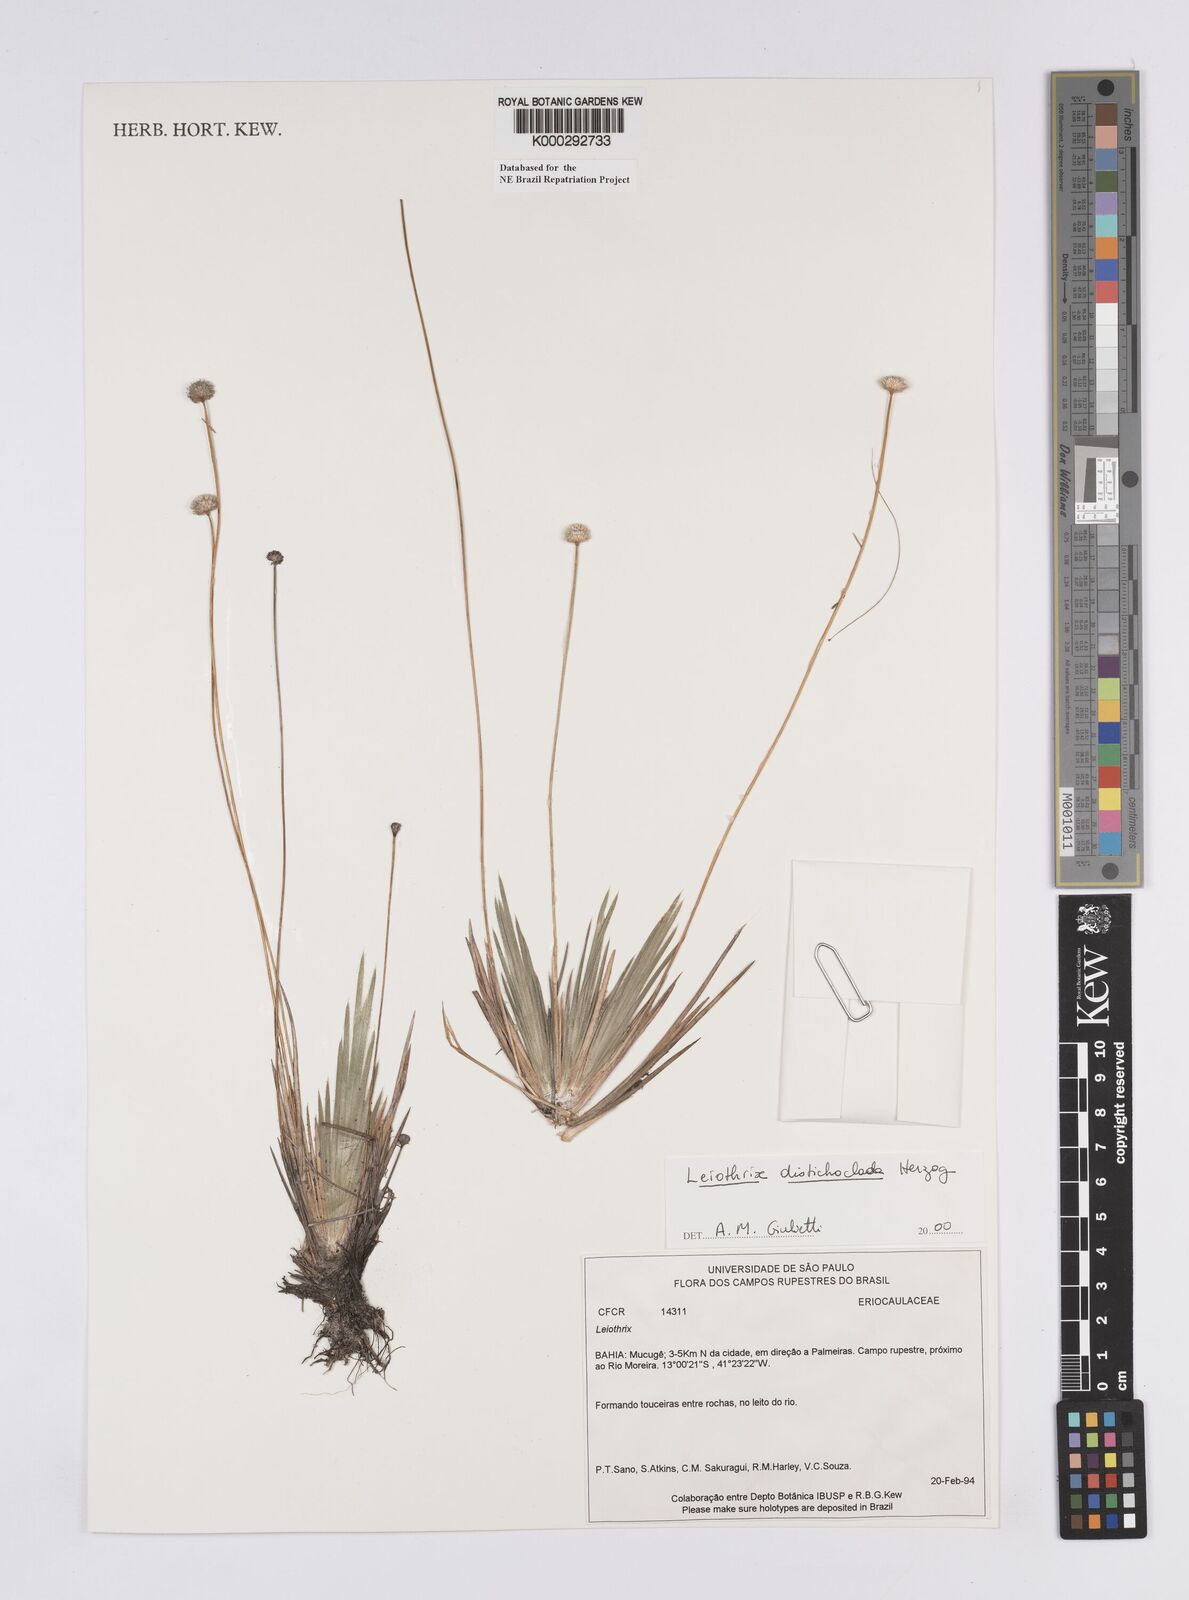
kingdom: Plantae
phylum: Tracheophyta
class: Liliopsida
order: Poales
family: Eriocaulaceae
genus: Leiothrix
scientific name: Leiothrix distichoclada
